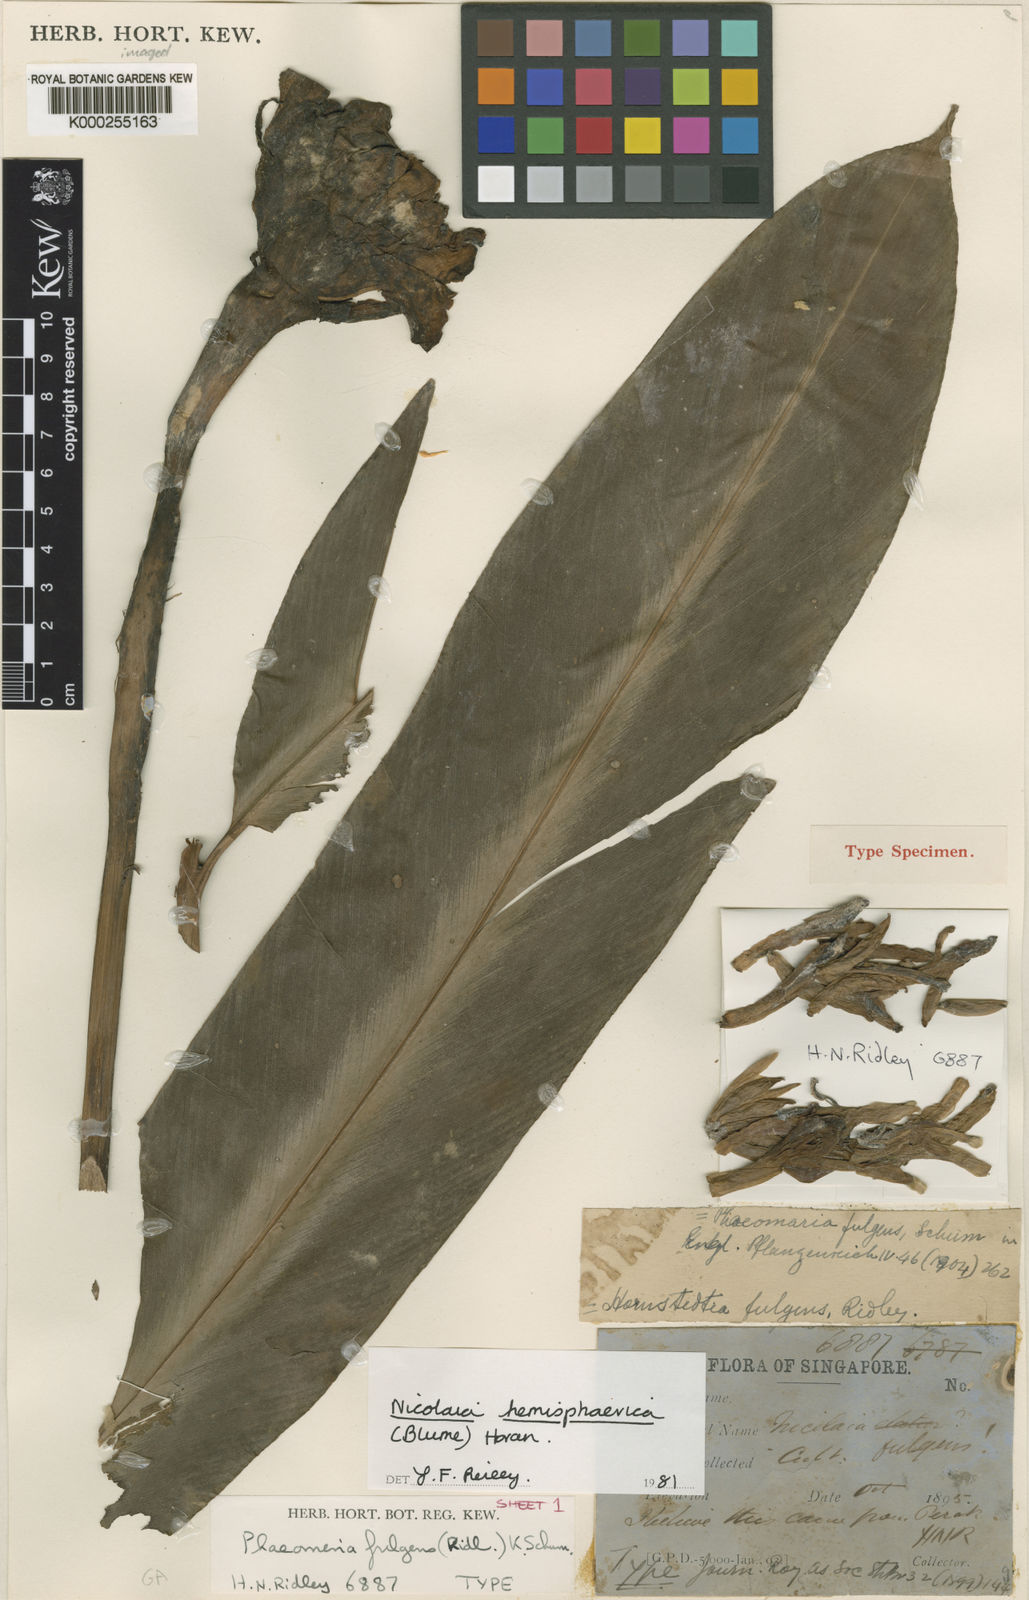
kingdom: Plantae
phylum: Tracheophyta
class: Liliopsida
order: Zingiberales
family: Zingiberaceae
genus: Etlingera
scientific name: Etlingera fulgens
